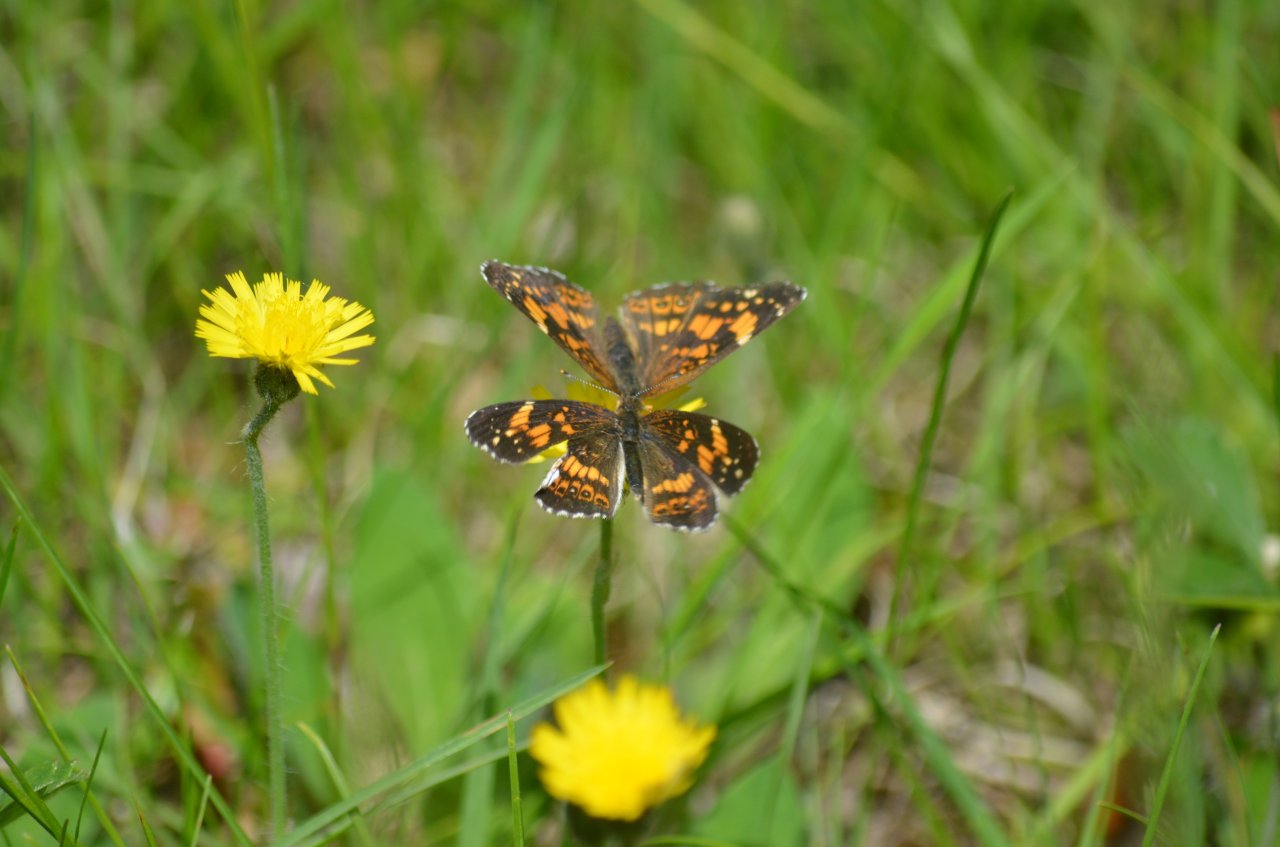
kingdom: Animalia
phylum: Arthropoda
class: Insecta
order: Lepidoptera
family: Nymphalidae
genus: Chlosyne
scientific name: Chlosyne nycteis
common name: Silvery Checkerspot
